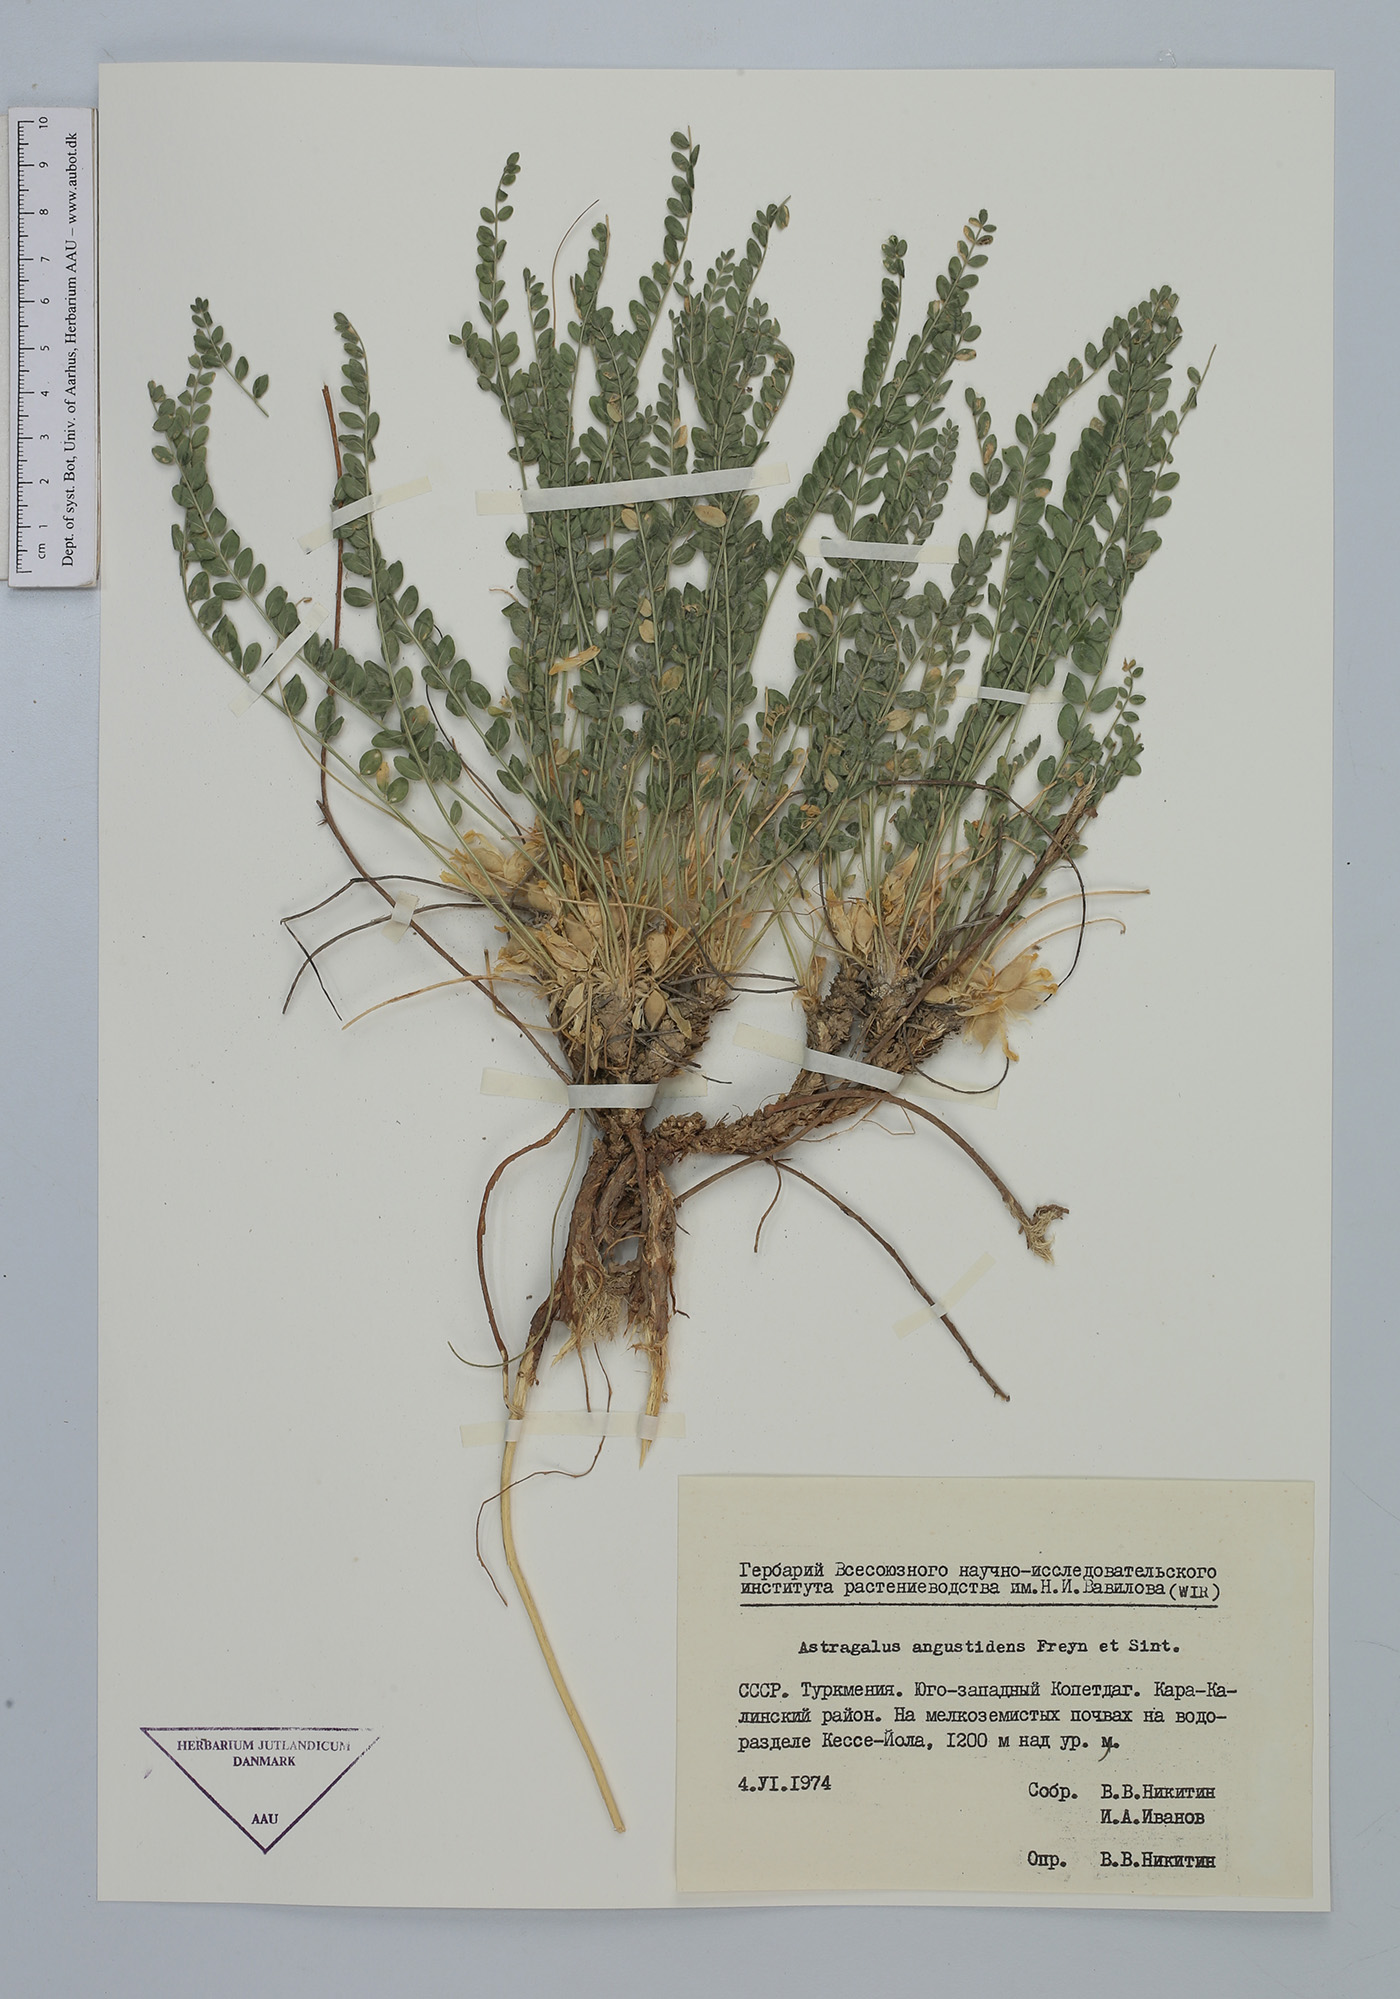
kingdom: Plantae
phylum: Tracheophyta
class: Magnoliopsida
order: Fabales
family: Fabaceae
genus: Astragalus
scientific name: Astragalus citrinus
